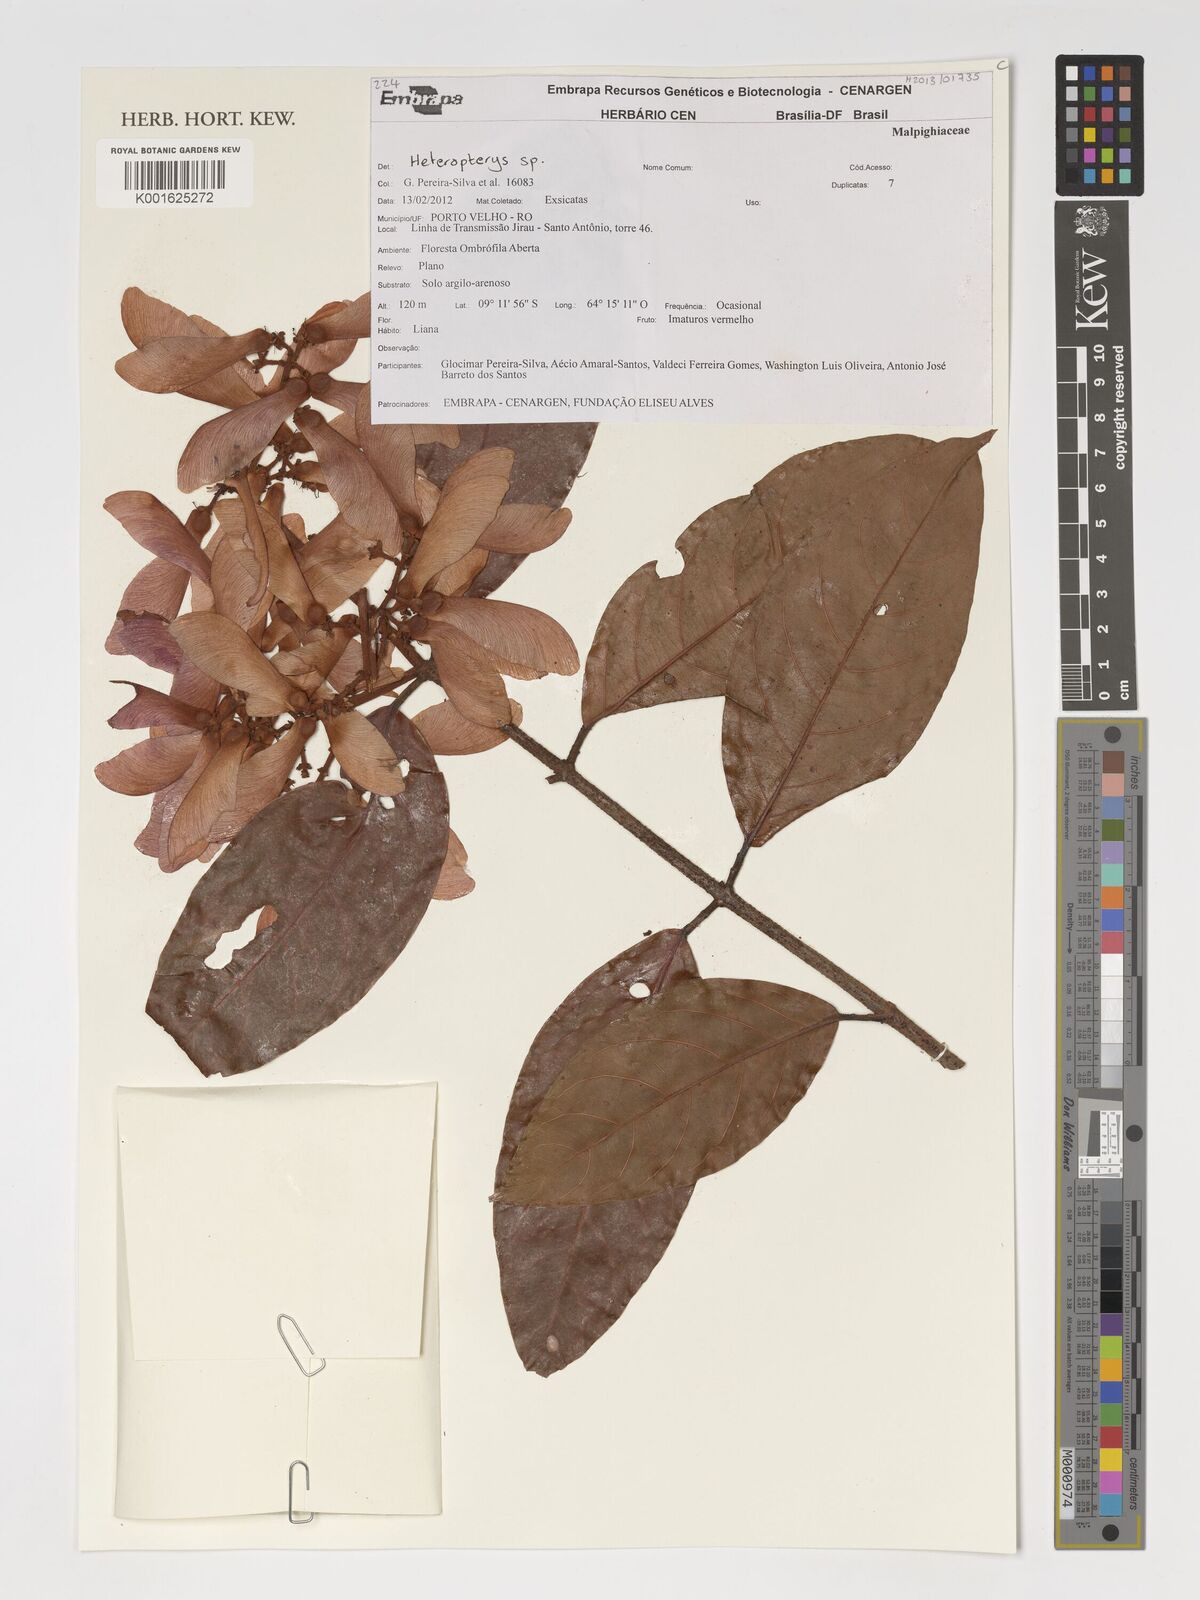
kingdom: Plantae
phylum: Tracheophyta
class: Magnoliopsida
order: Malpighiales
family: Malpighiaceae
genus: Heteropterys
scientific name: Heteropterys
